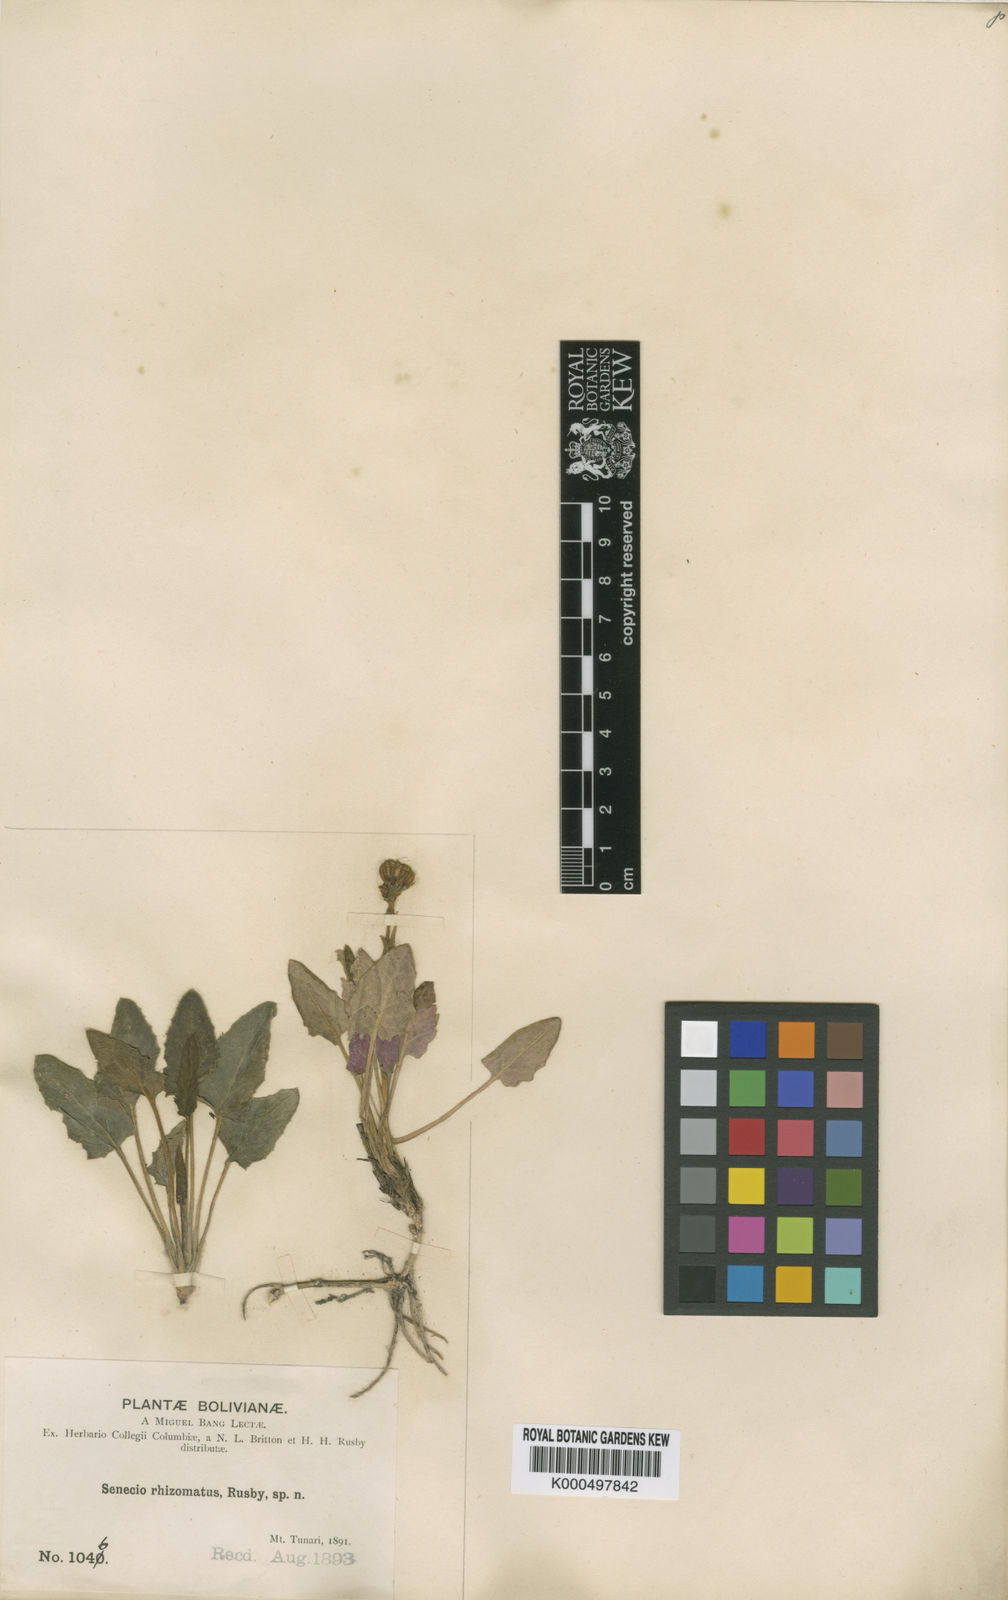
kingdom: Plantae
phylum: Tracheophyta
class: Magnoliopsida
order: Asterales
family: Asteraceae
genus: Senecio
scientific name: Senecio rhizomatus
